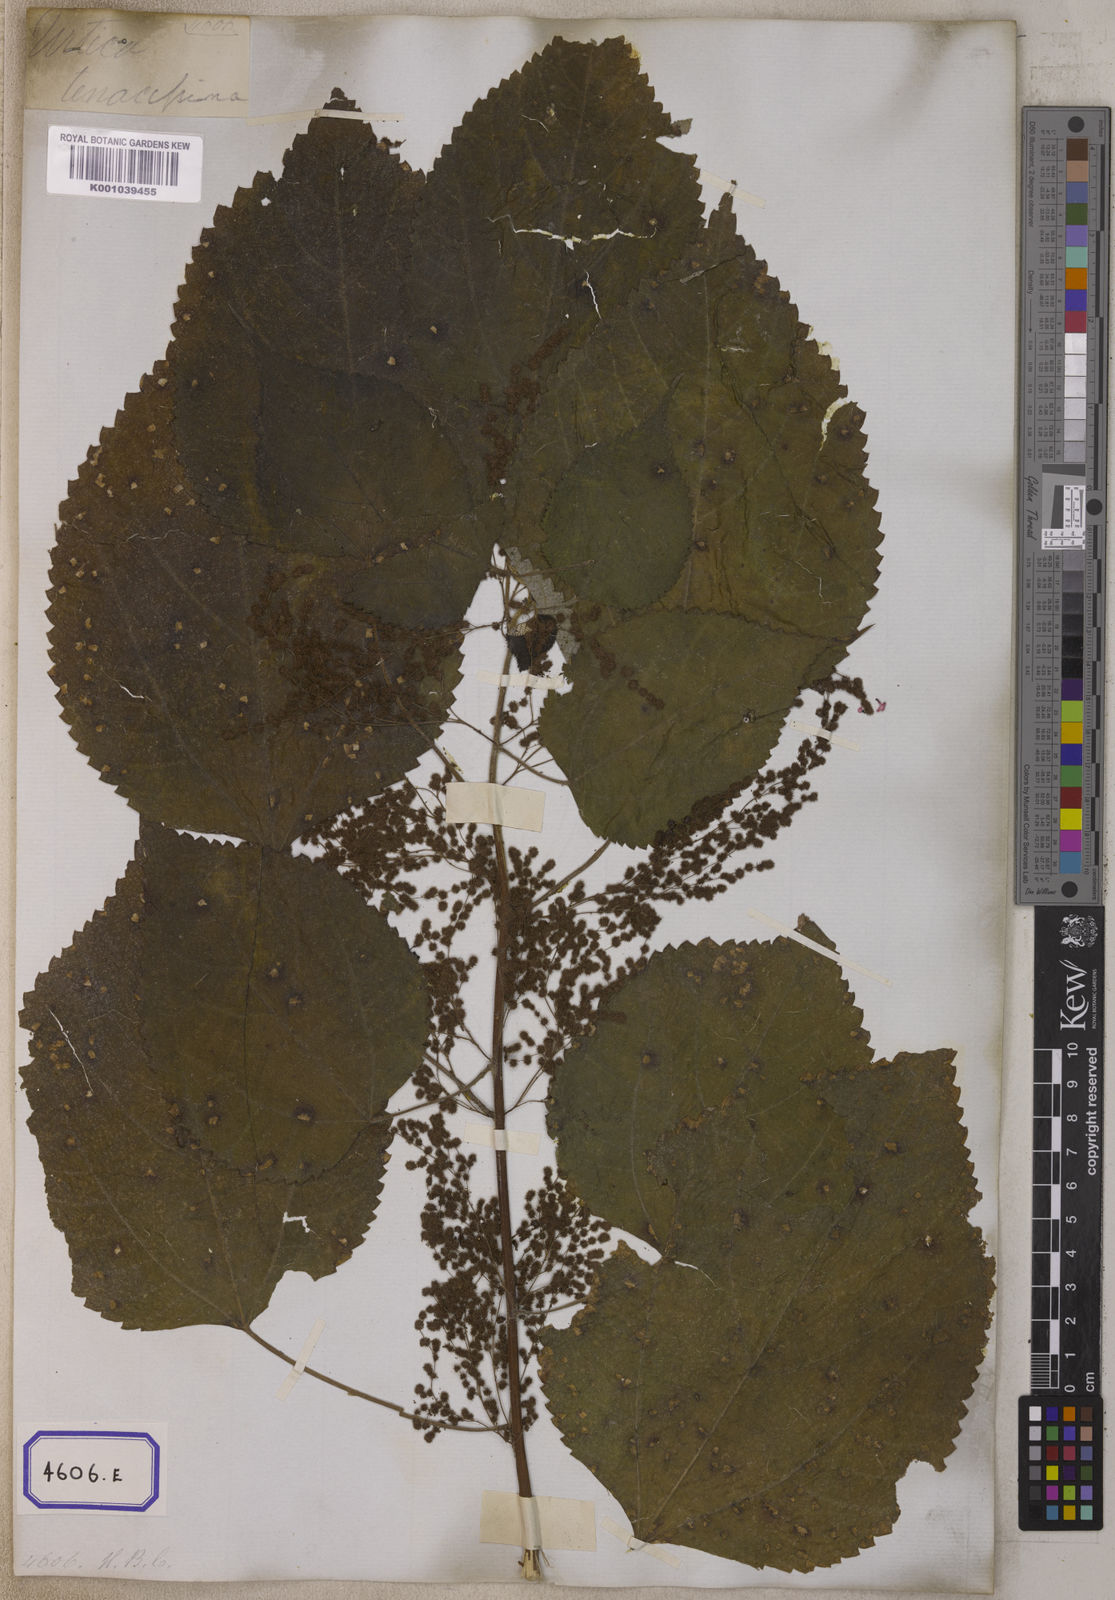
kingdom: Plantae
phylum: Tracheophyta
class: Magnoliopsida
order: Rosales
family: Urticaceae
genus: Boehmeria
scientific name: Boehmeria nivea
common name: Ramie chinese grass
